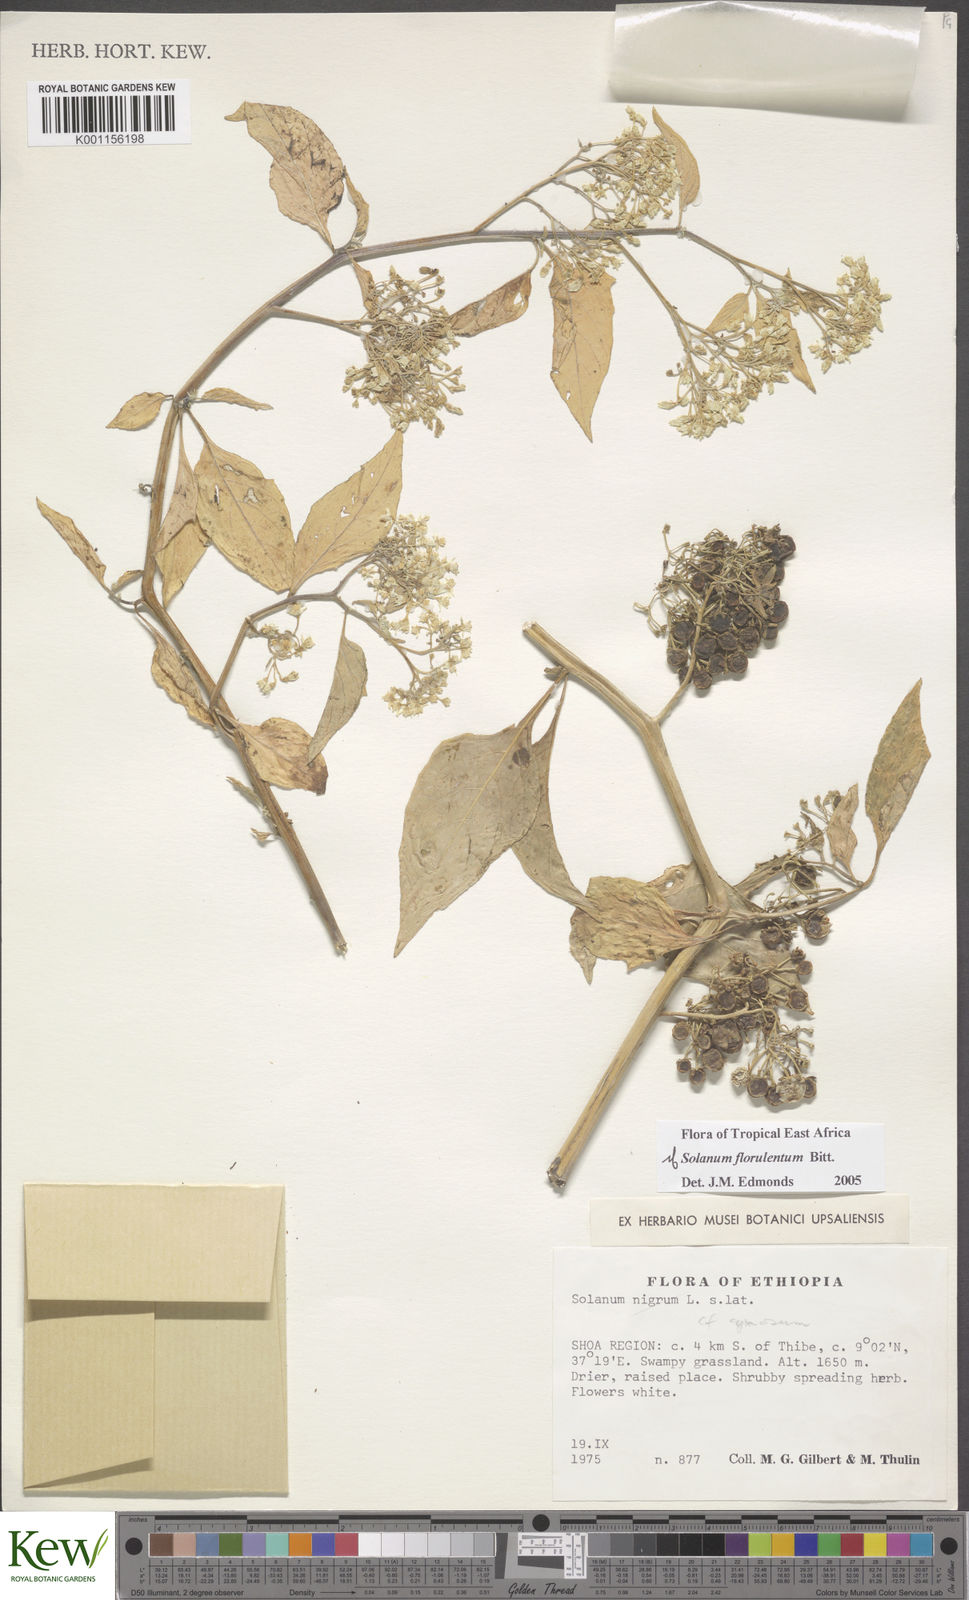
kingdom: Plantae
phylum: Tracheophyta
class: Magnoliopsida
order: Solanales
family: Solanaceae
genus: Solanum
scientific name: Solanum tarderemotum
